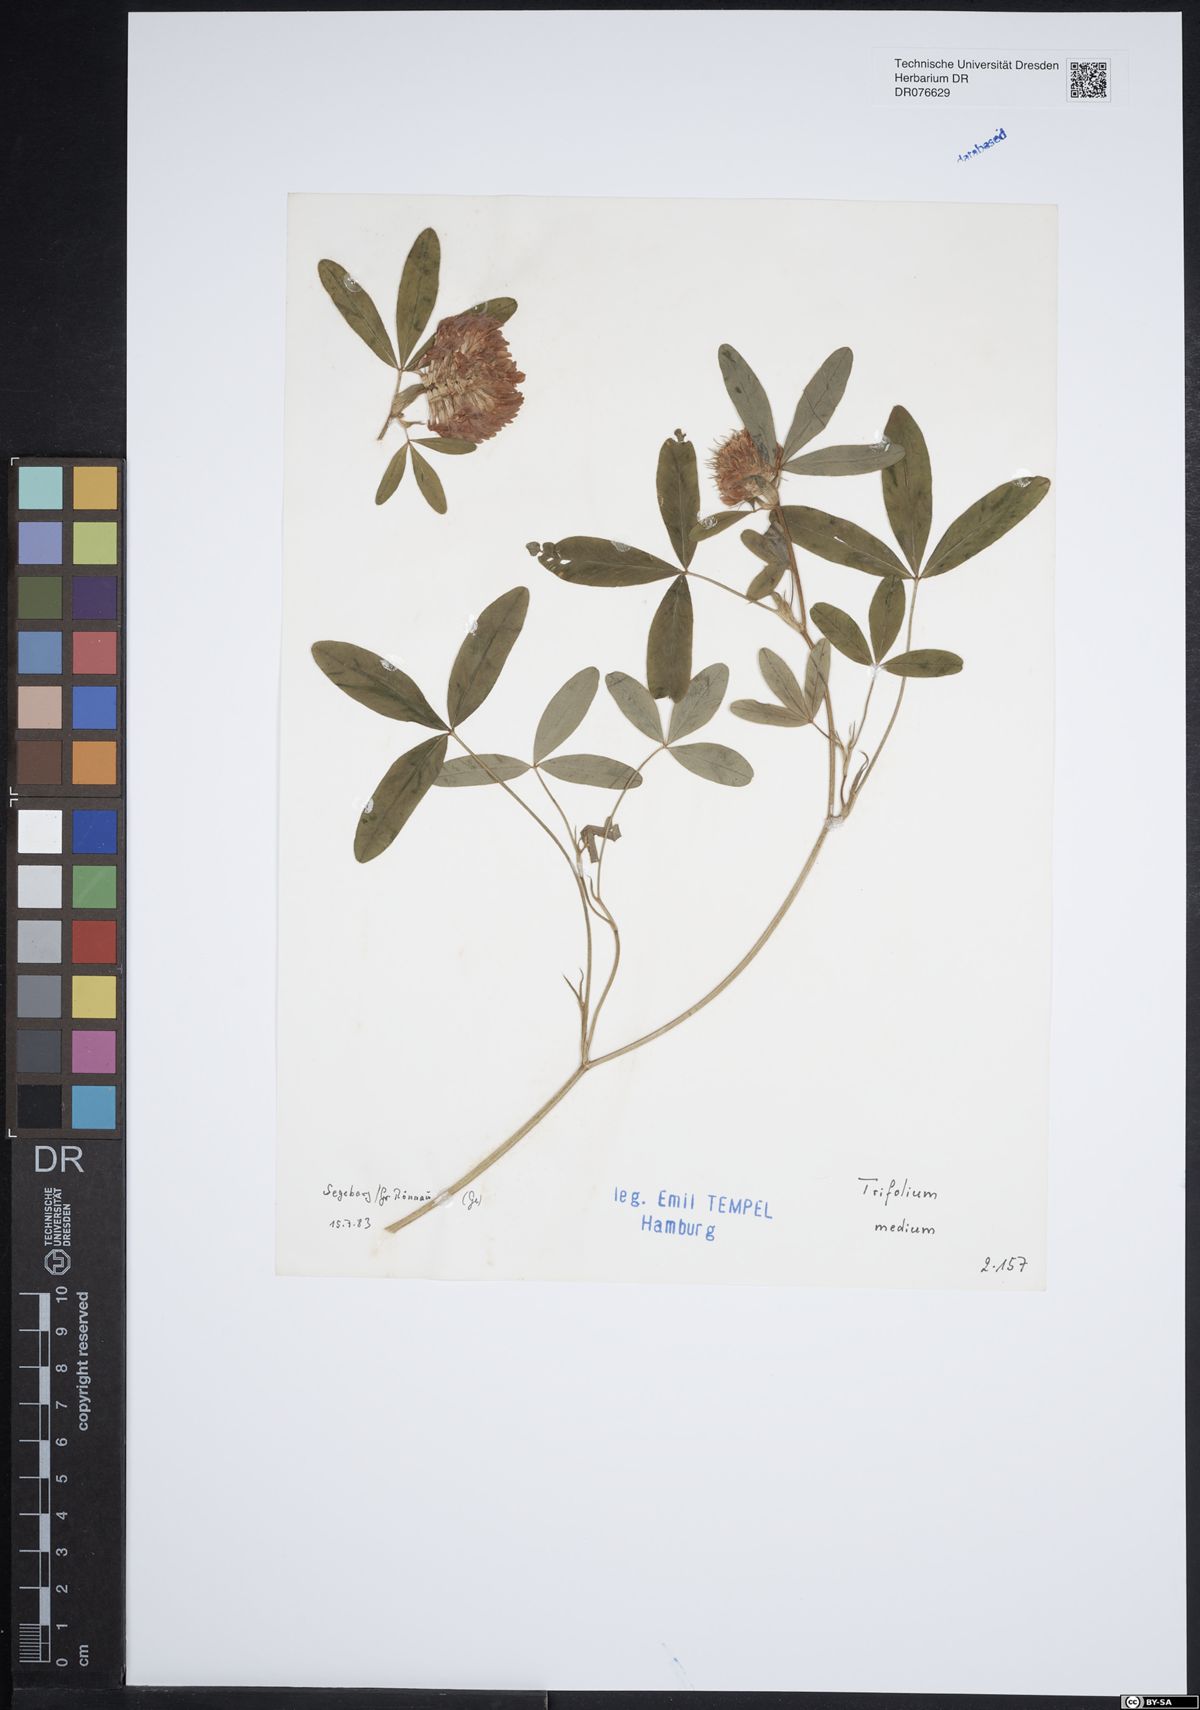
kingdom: Plantae
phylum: Tracheophyta
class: Magnoliopsida
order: Fabales
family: Fabaceae
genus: Trifolium
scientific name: Trifolium medium
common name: Zigzag clover
